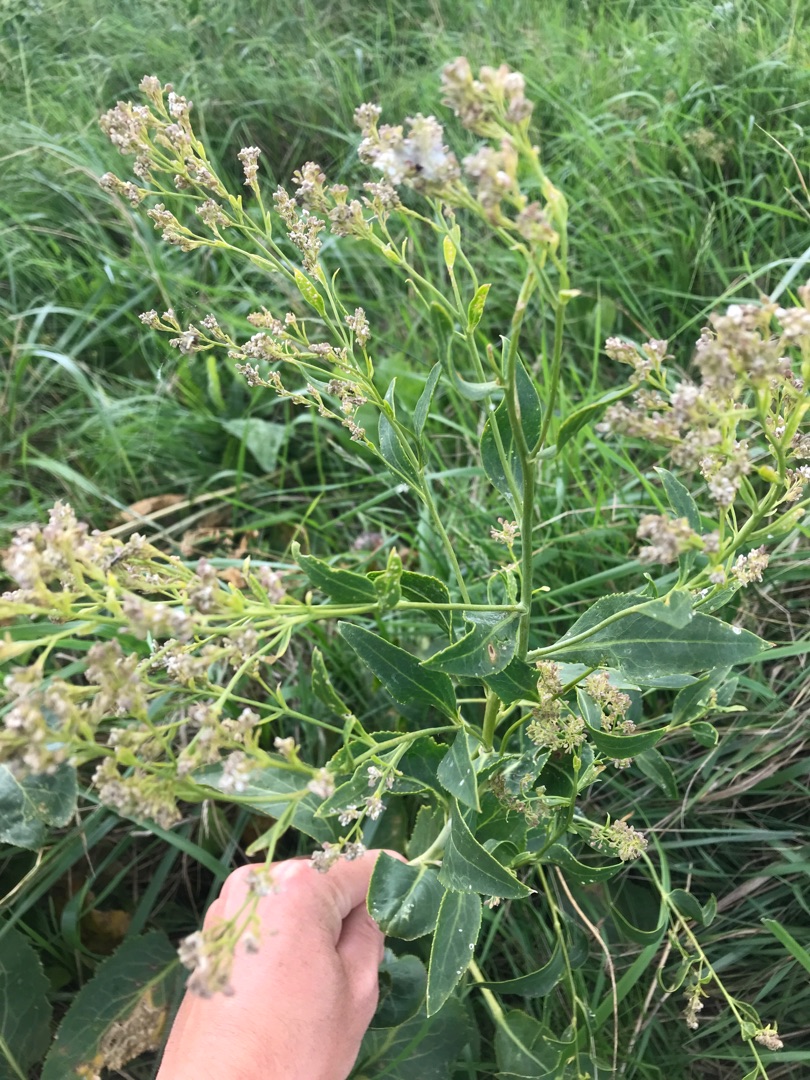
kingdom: Plantae
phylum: Tracheophyta
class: Magnoliopsida
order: Brassicales
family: Brassicaceae
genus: Lepidium
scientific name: Lepidium latifolium
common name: Strand-karse
